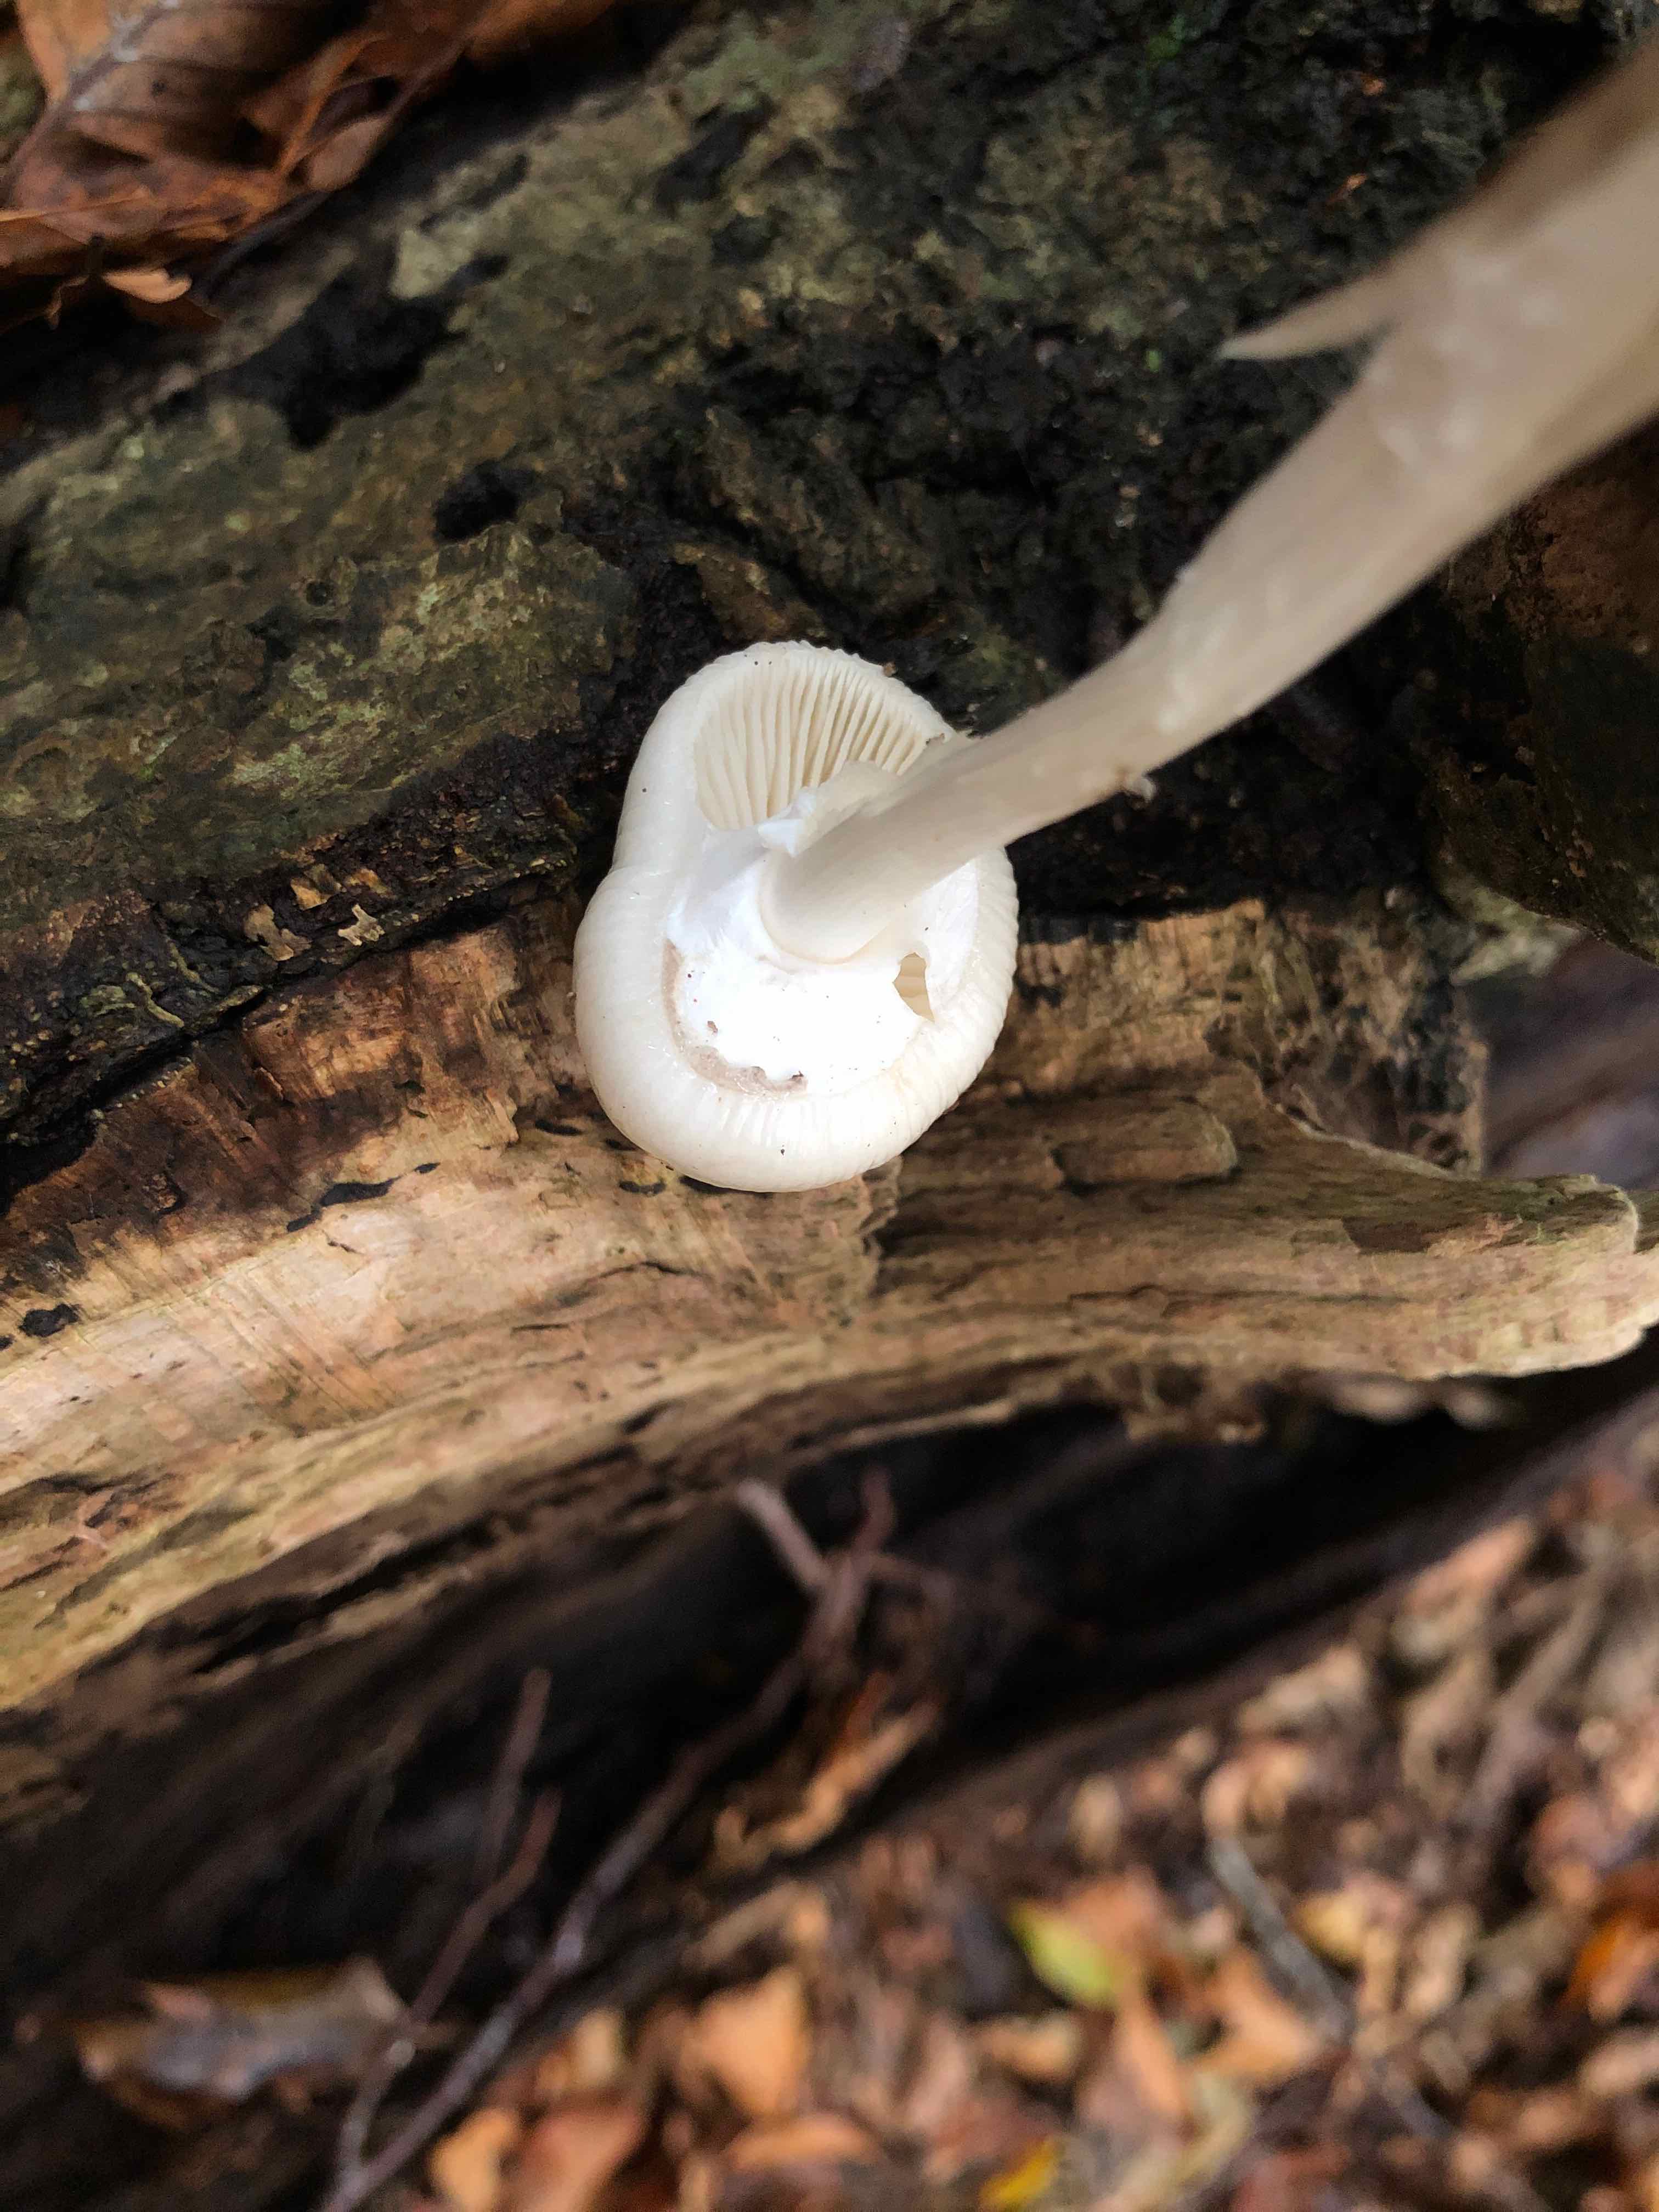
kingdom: Fungi
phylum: Basidiomycota
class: Agaricomycetes
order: Agaricales
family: Physalacriaceae
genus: Mucidula
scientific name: Mucidula mucida
